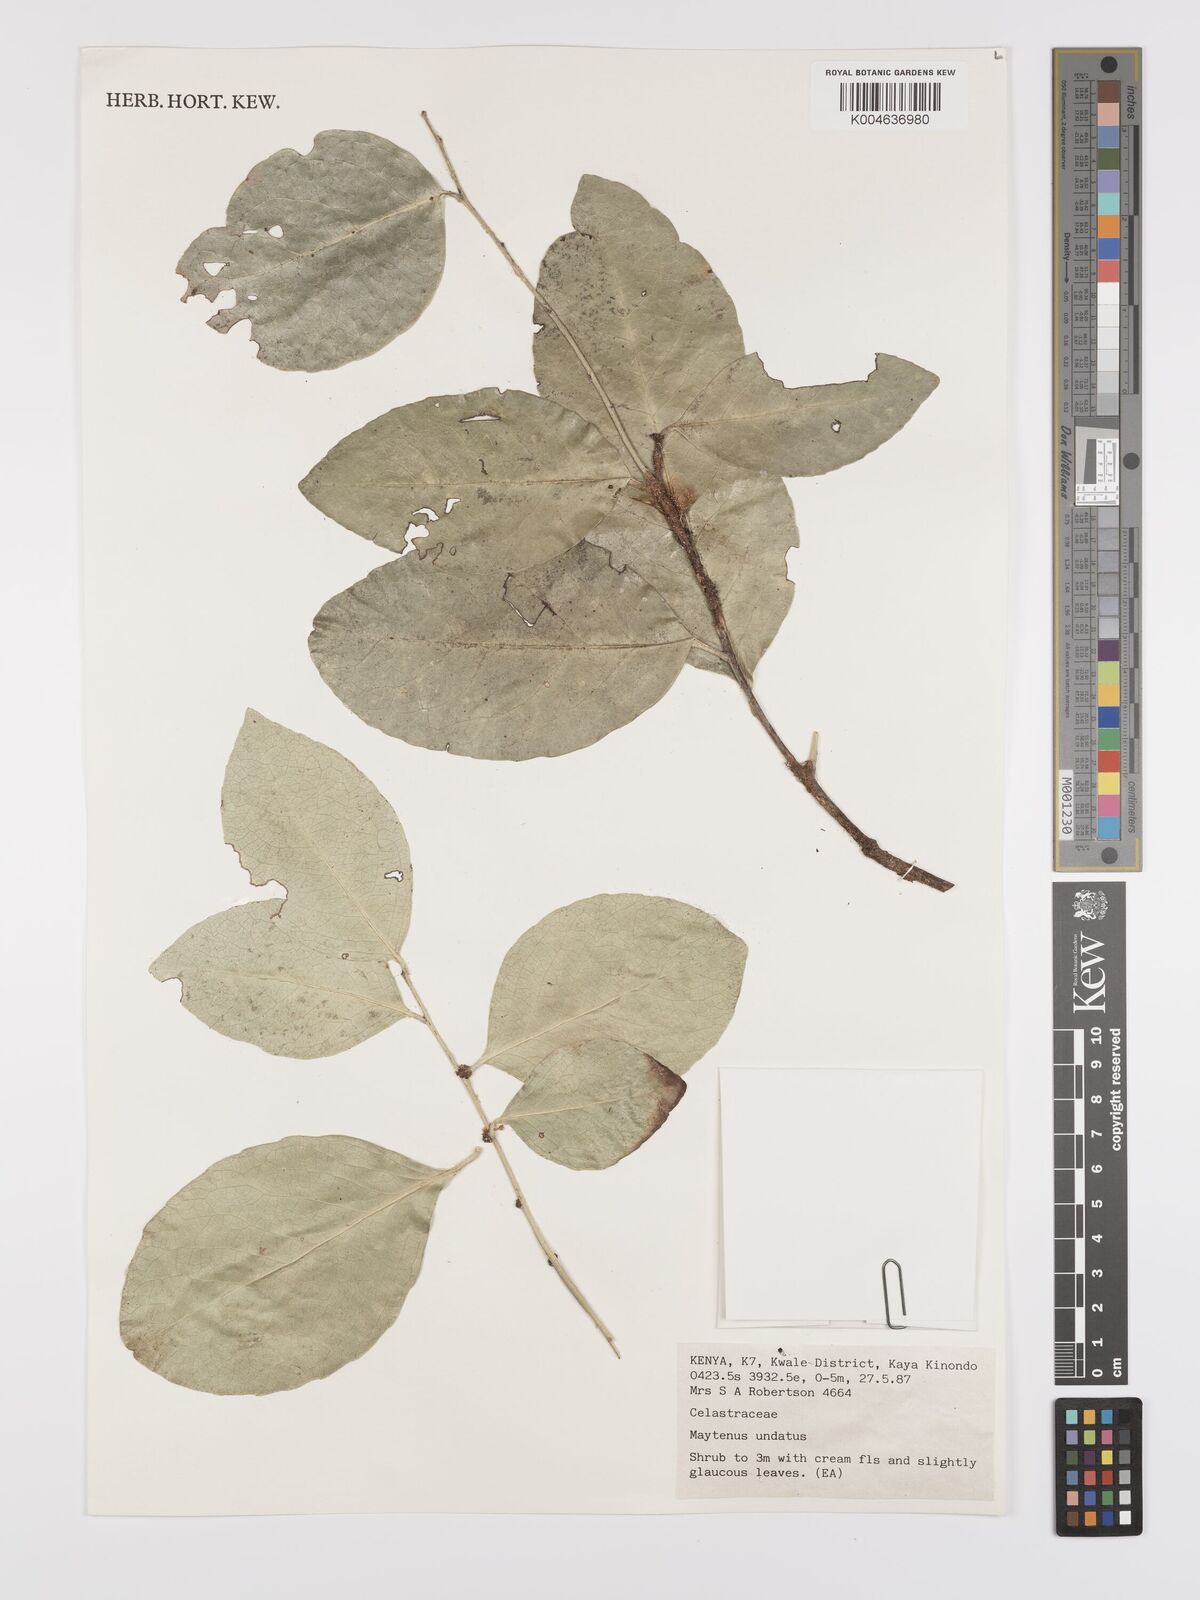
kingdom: Plantae
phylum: Tracheophyta
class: Magnoliopsida
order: Celastrales
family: Celastraceae
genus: Gymnosporia
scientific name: Gymnosporia undata
